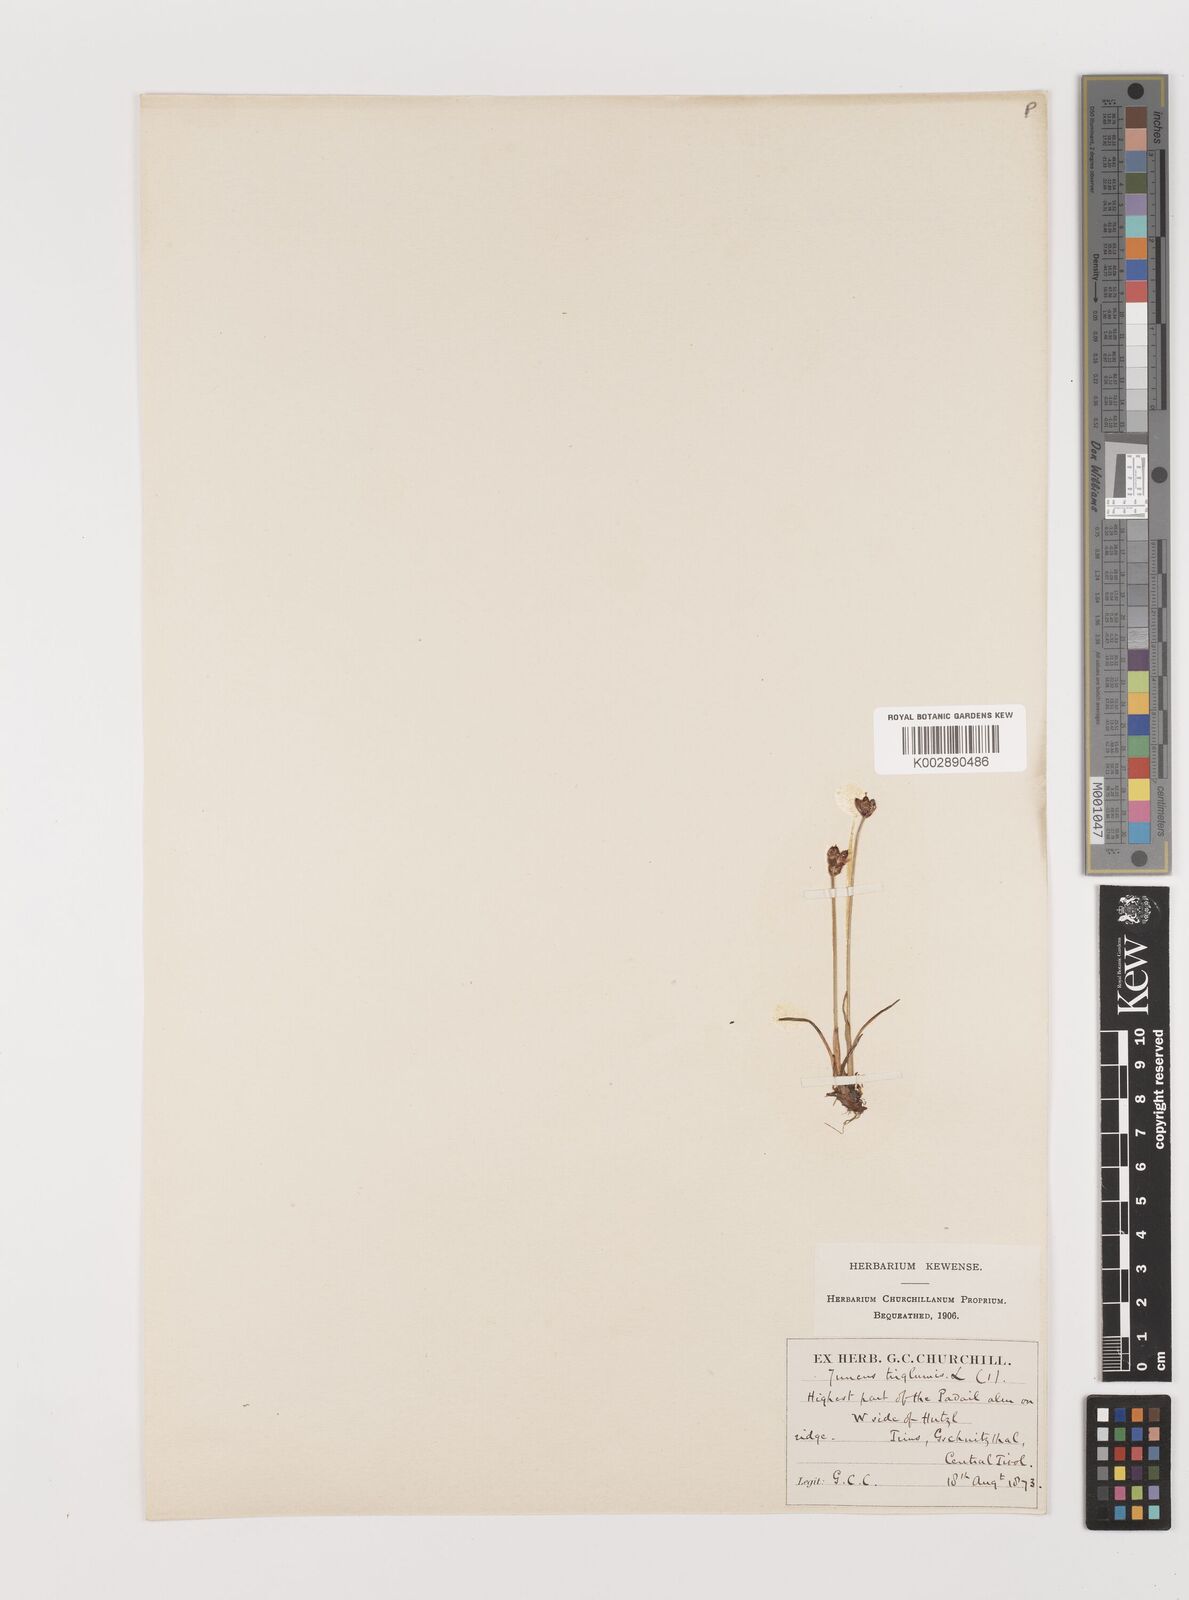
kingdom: Plantae
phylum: Tracheophyta
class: Liliopsida
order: Poales
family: Juncaceae
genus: Juncus
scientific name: Juncus triglumis
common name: Three-flowered rush
